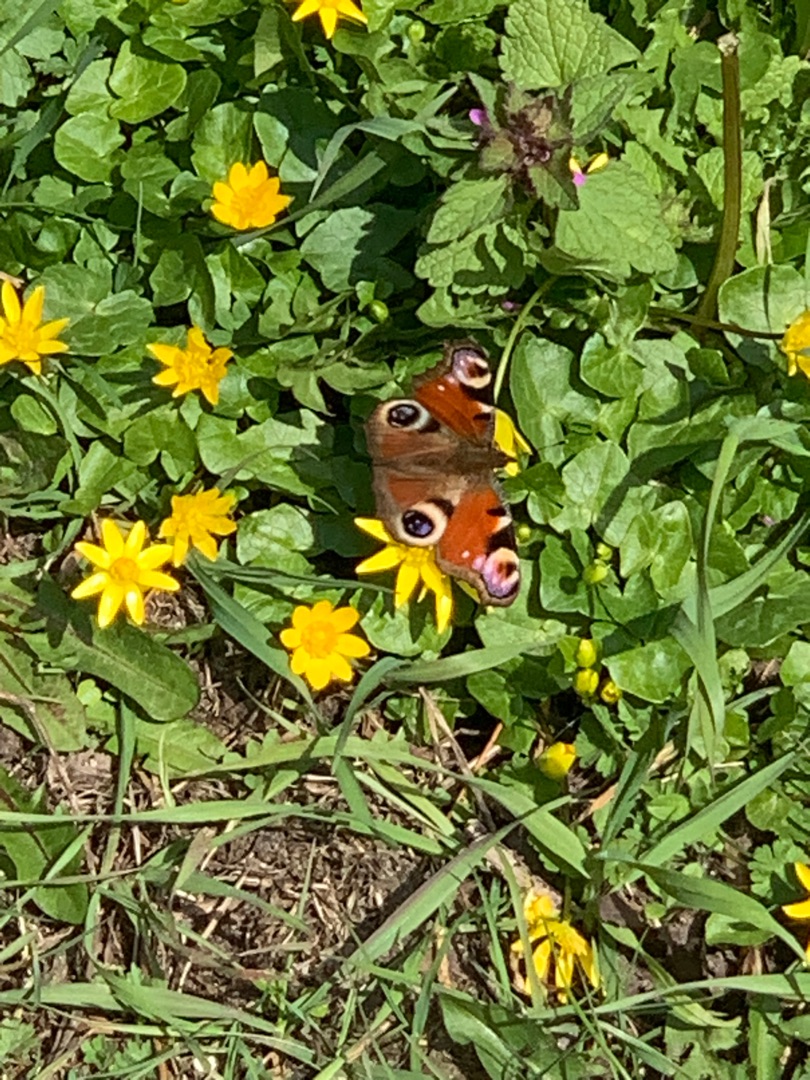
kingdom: Animalia
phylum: Arthropoda
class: Insecta
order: Lepidoptera
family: Nymphalidae
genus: Aglais
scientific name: Aglais io
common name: Dagpåfugleøje
